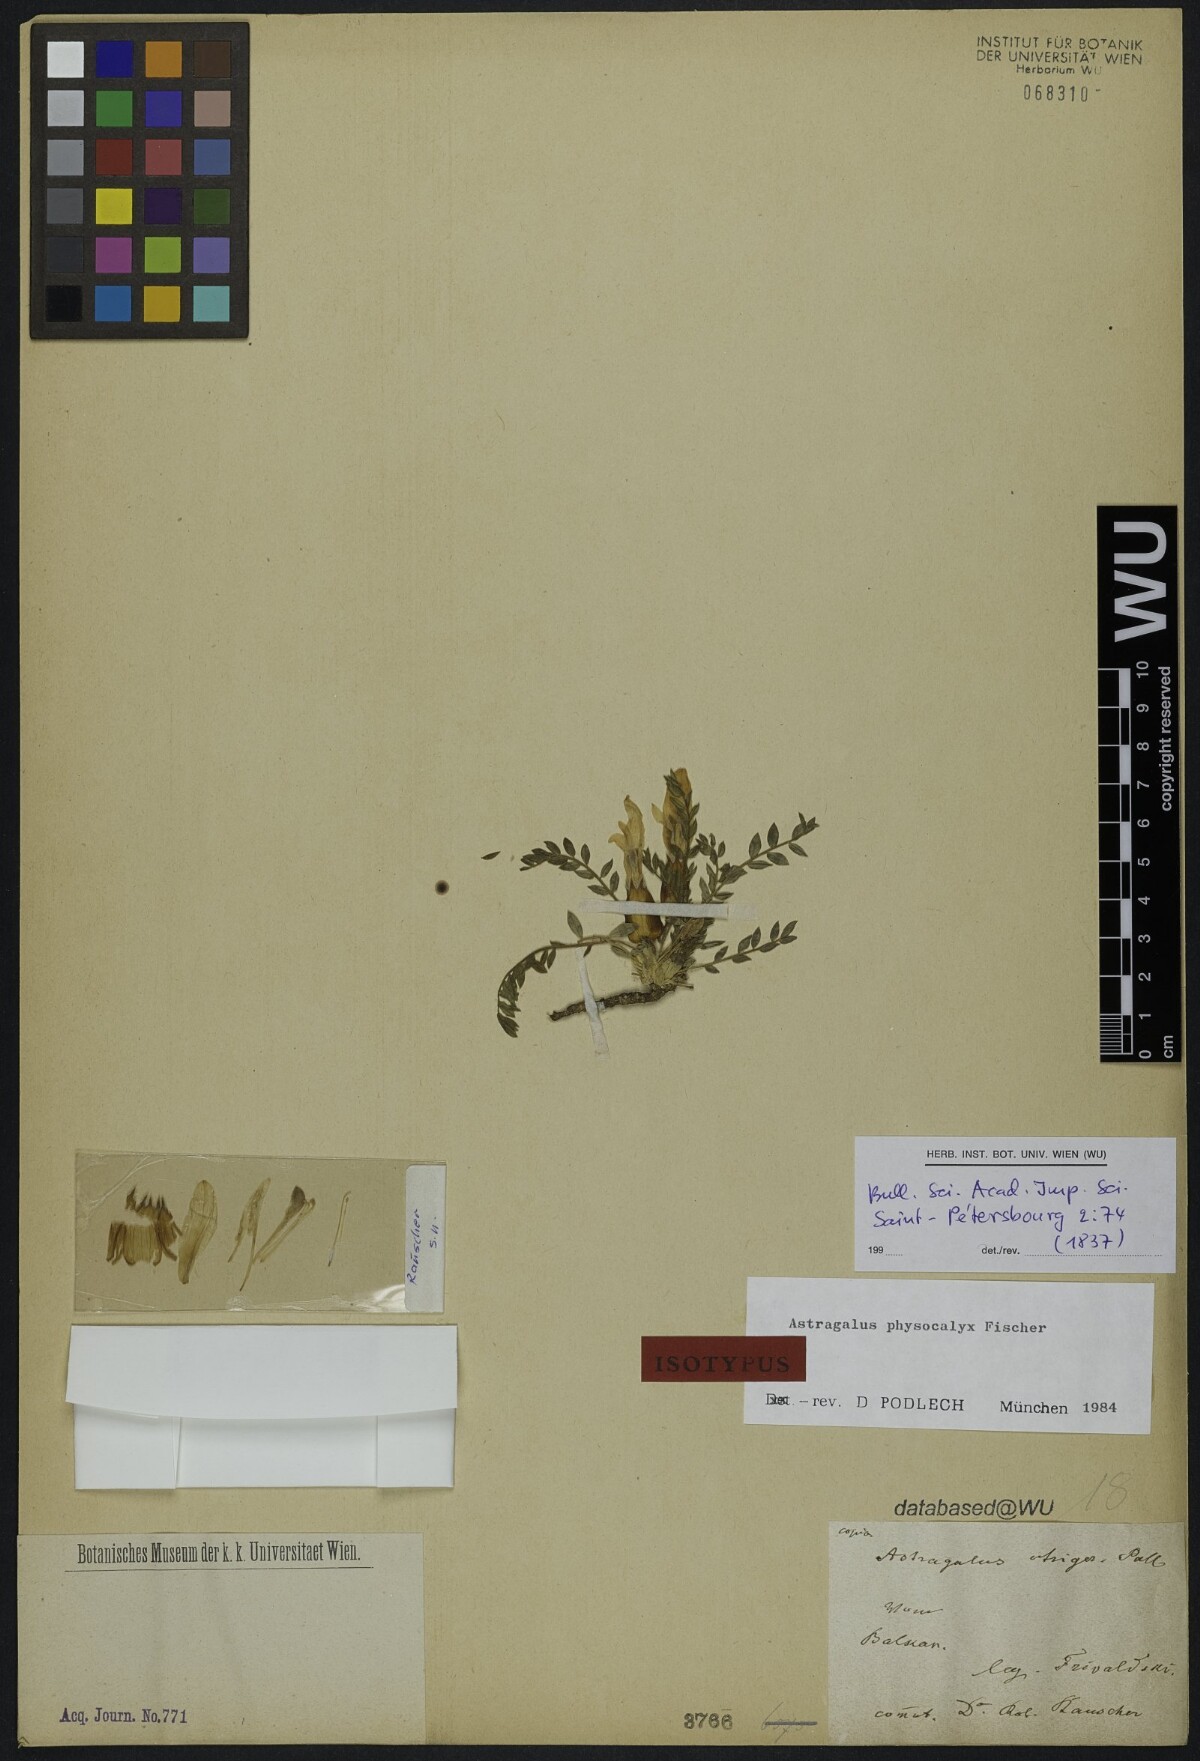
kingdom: Plantae
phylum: Tracheophyta
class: Magnoliopsida
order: Fabales
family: Fabaceae
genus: Astragalus
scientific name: Astragalus physocalyx
